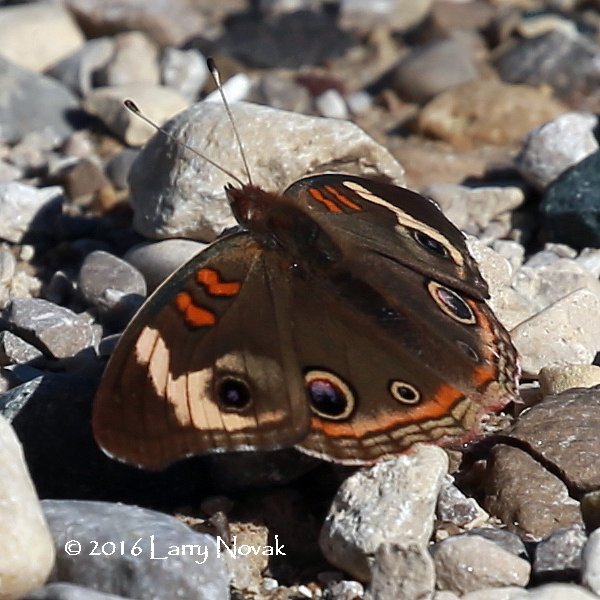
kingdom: Animalia
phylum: Arthropoda
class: Insecta
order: Lepidoptera
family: Nymphalidae
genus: Junonia
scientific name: Junonia coenia
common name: Common Buckeye
